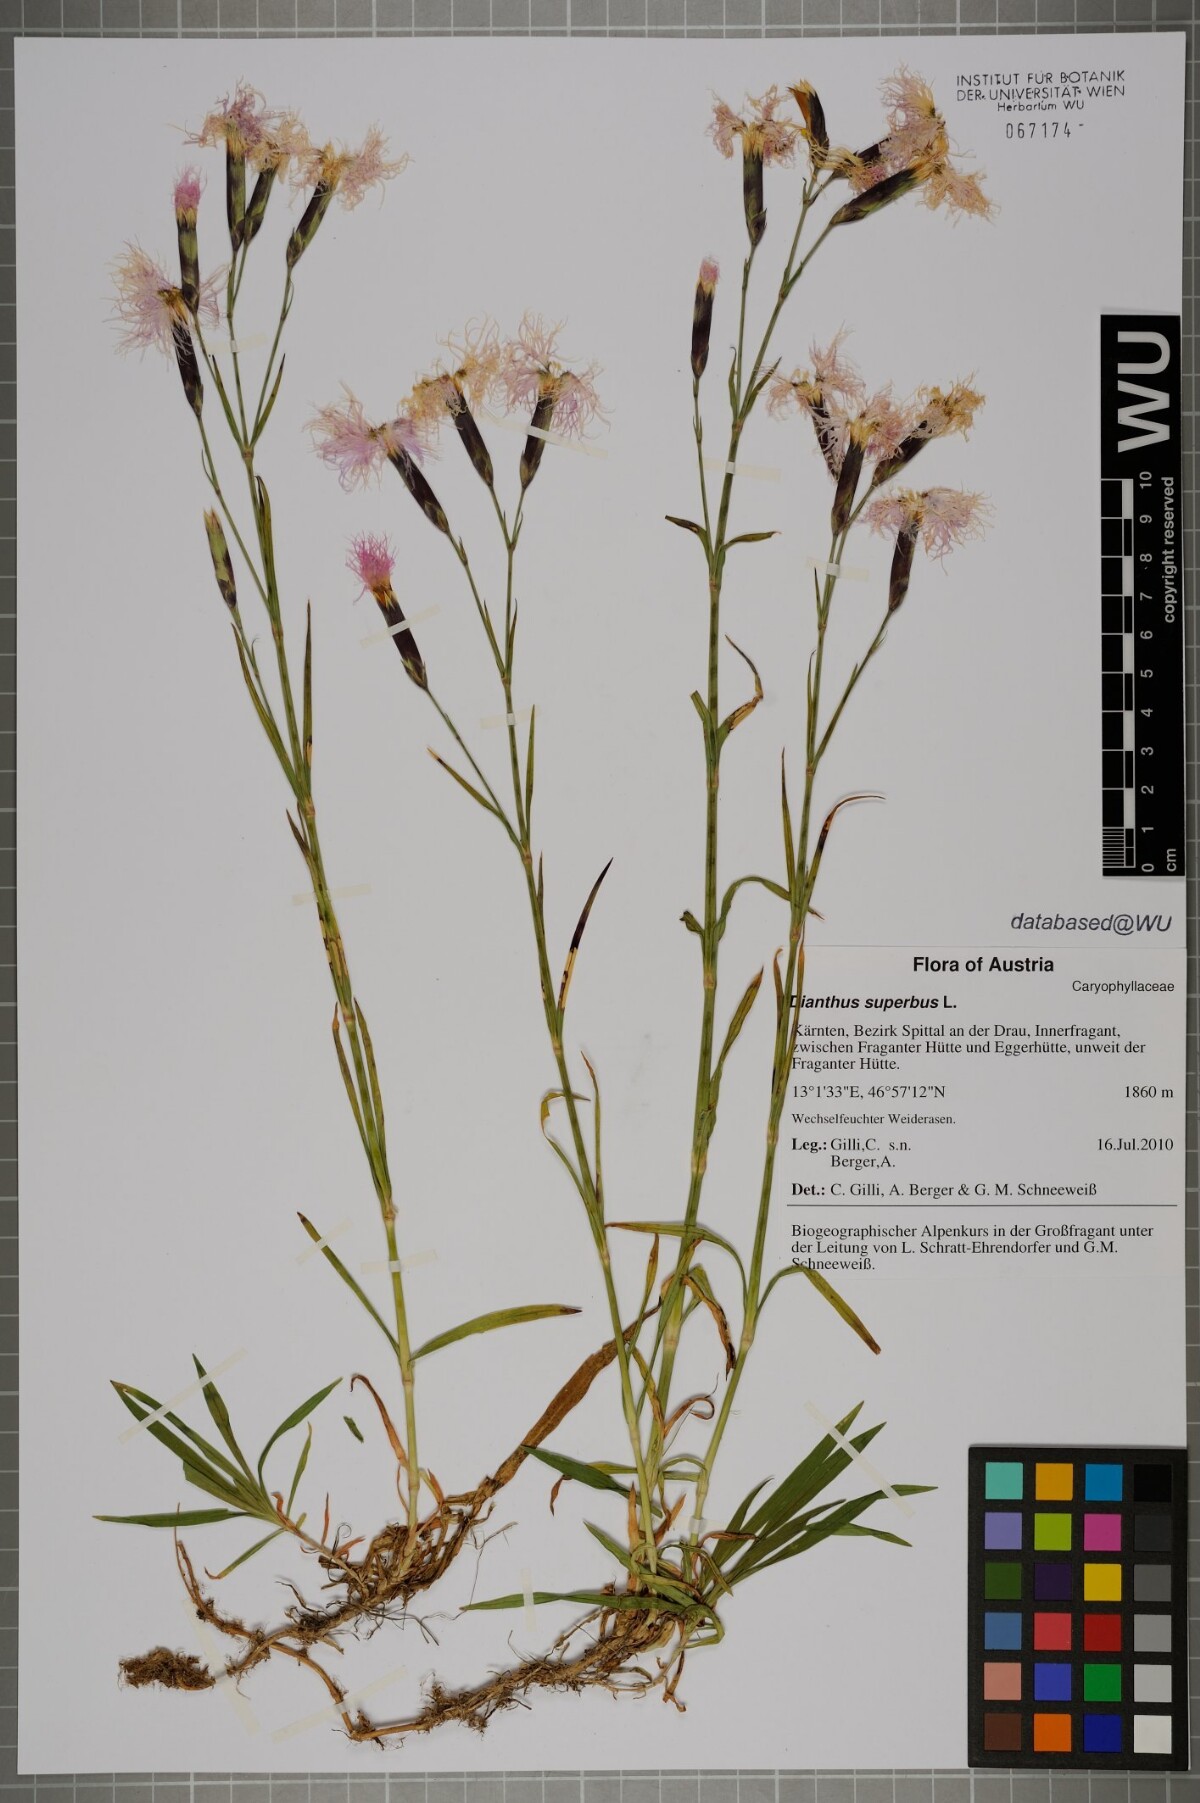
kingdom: Plantae
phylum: Tracheophyta
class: Magnoliopsida
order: Caryophyllales
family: Caryophyllaceae
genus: Dianthus
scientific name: Dianthus superbus
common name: Fringed pink
